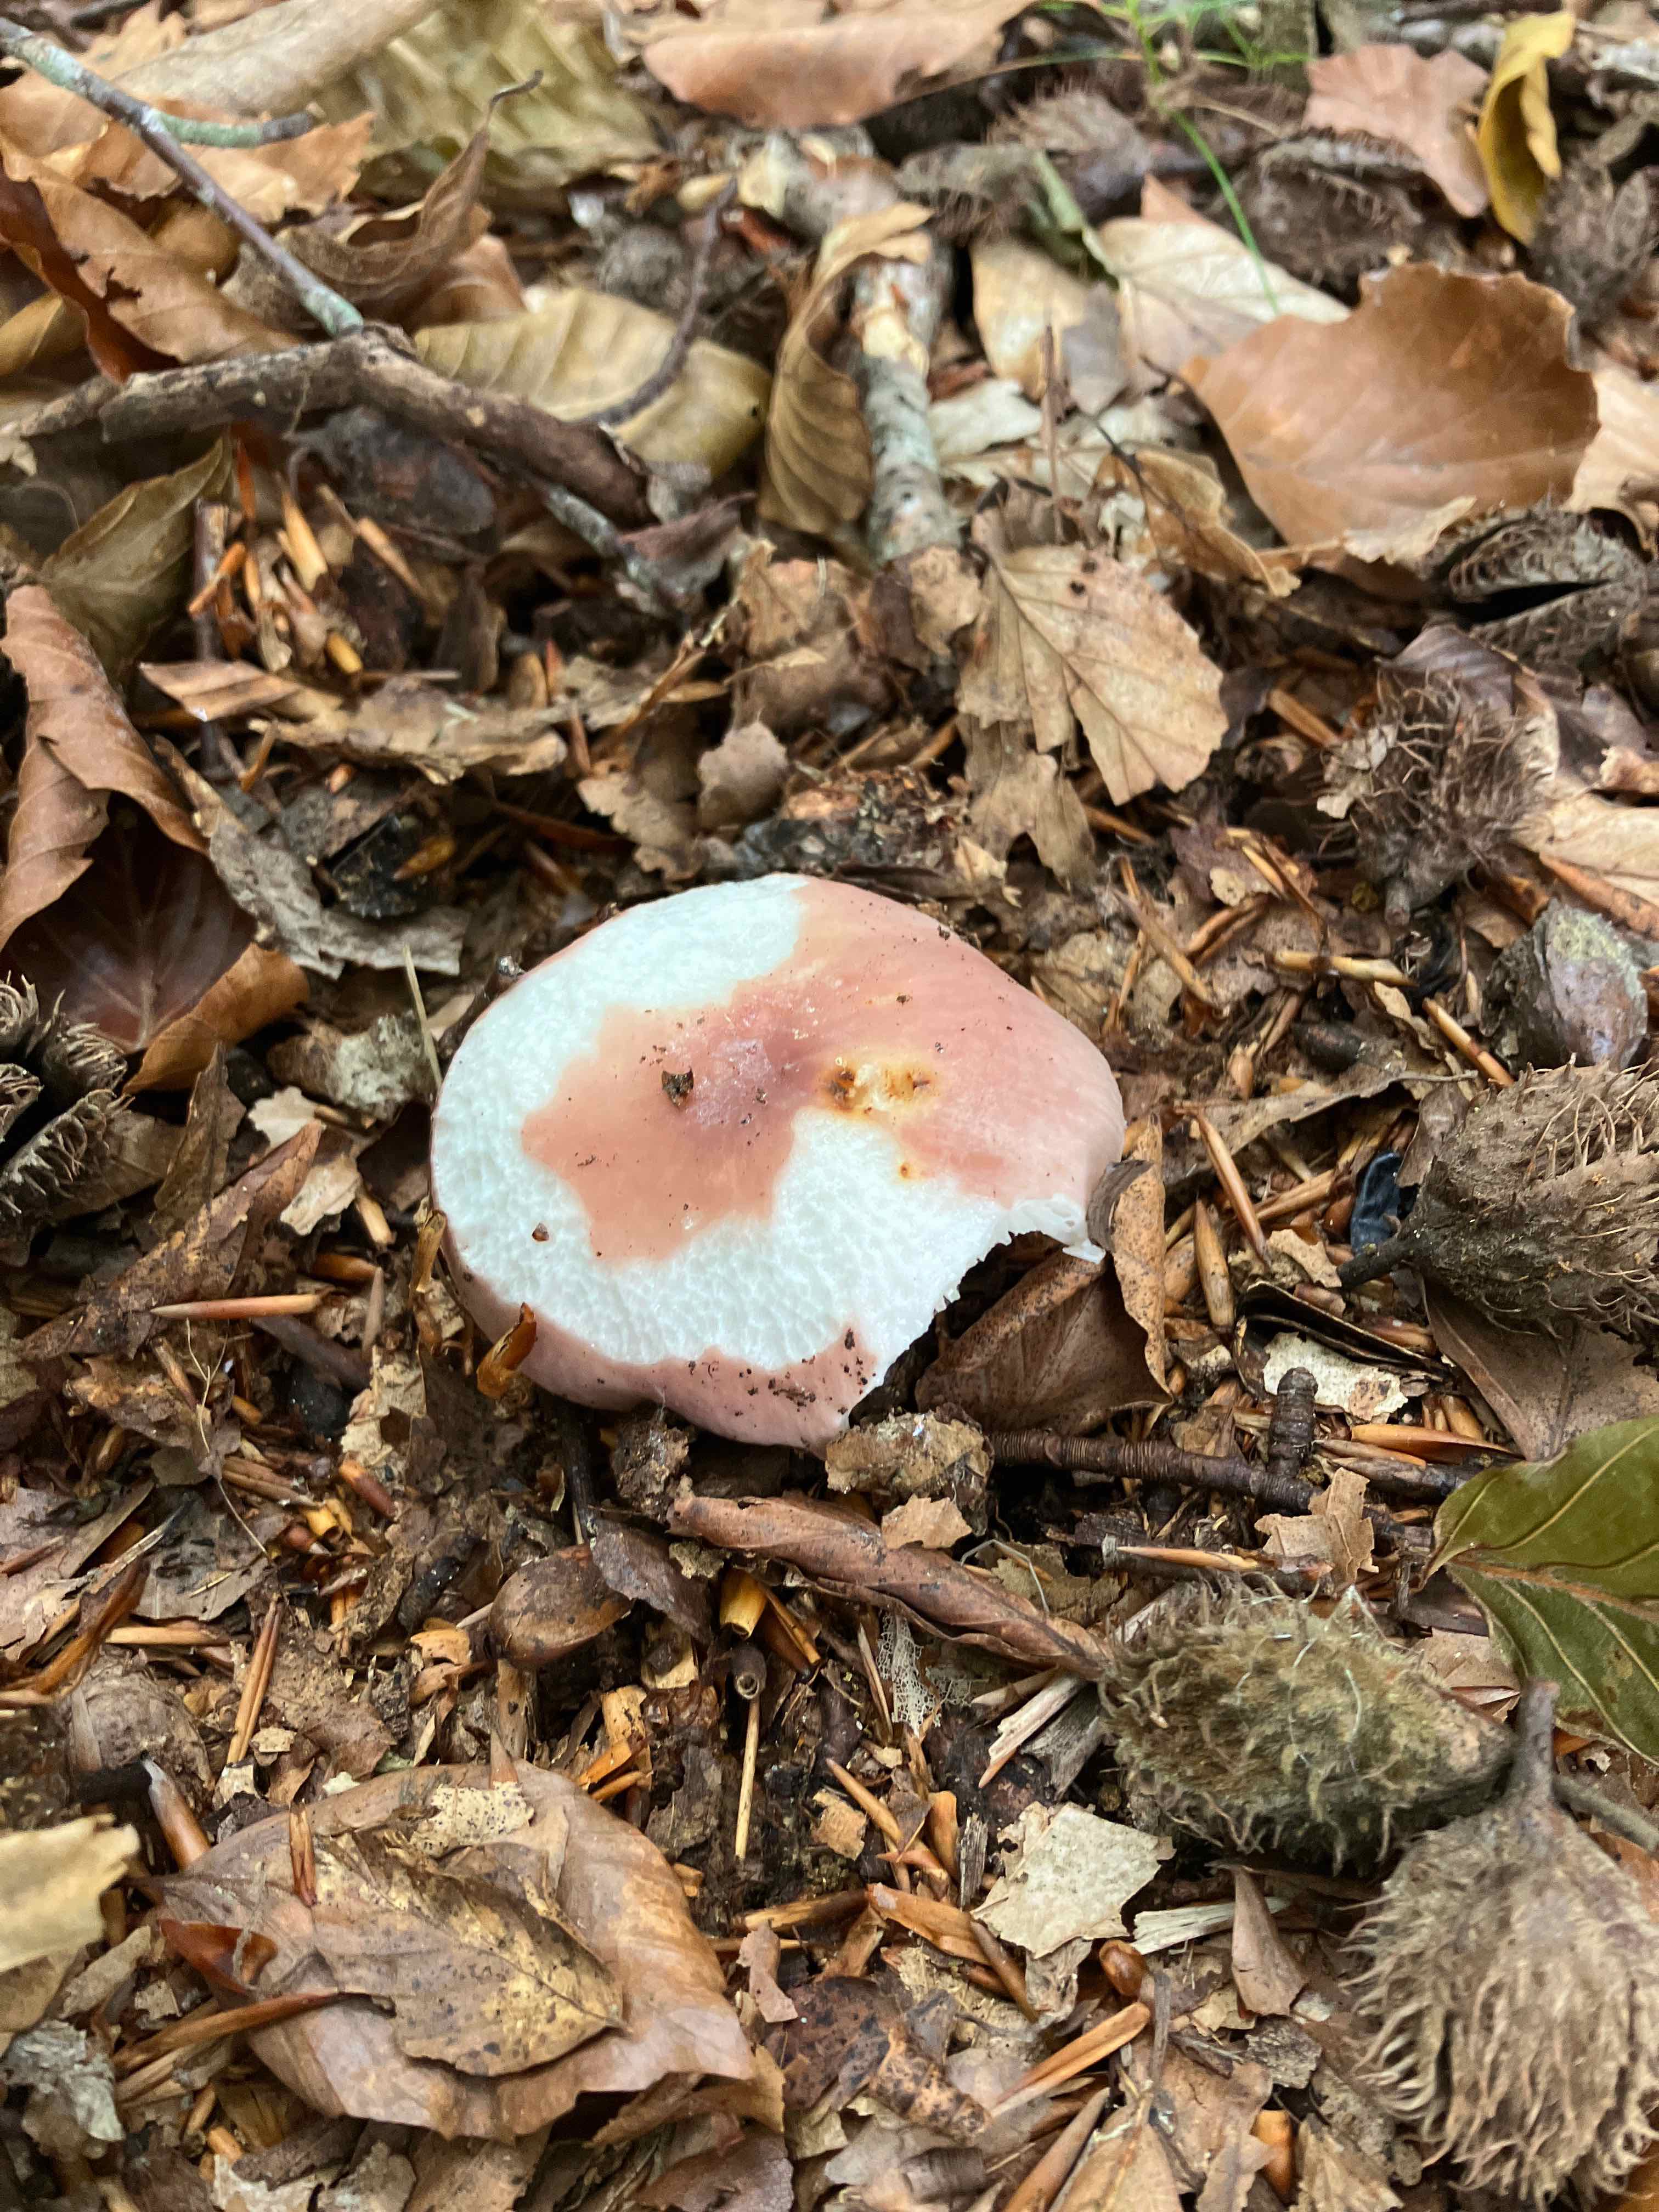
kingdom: Fungi
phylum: Basidiomycota
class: Agaricomycetes
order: Russulales
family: Russulaceae
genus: Russula
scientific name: Russula
